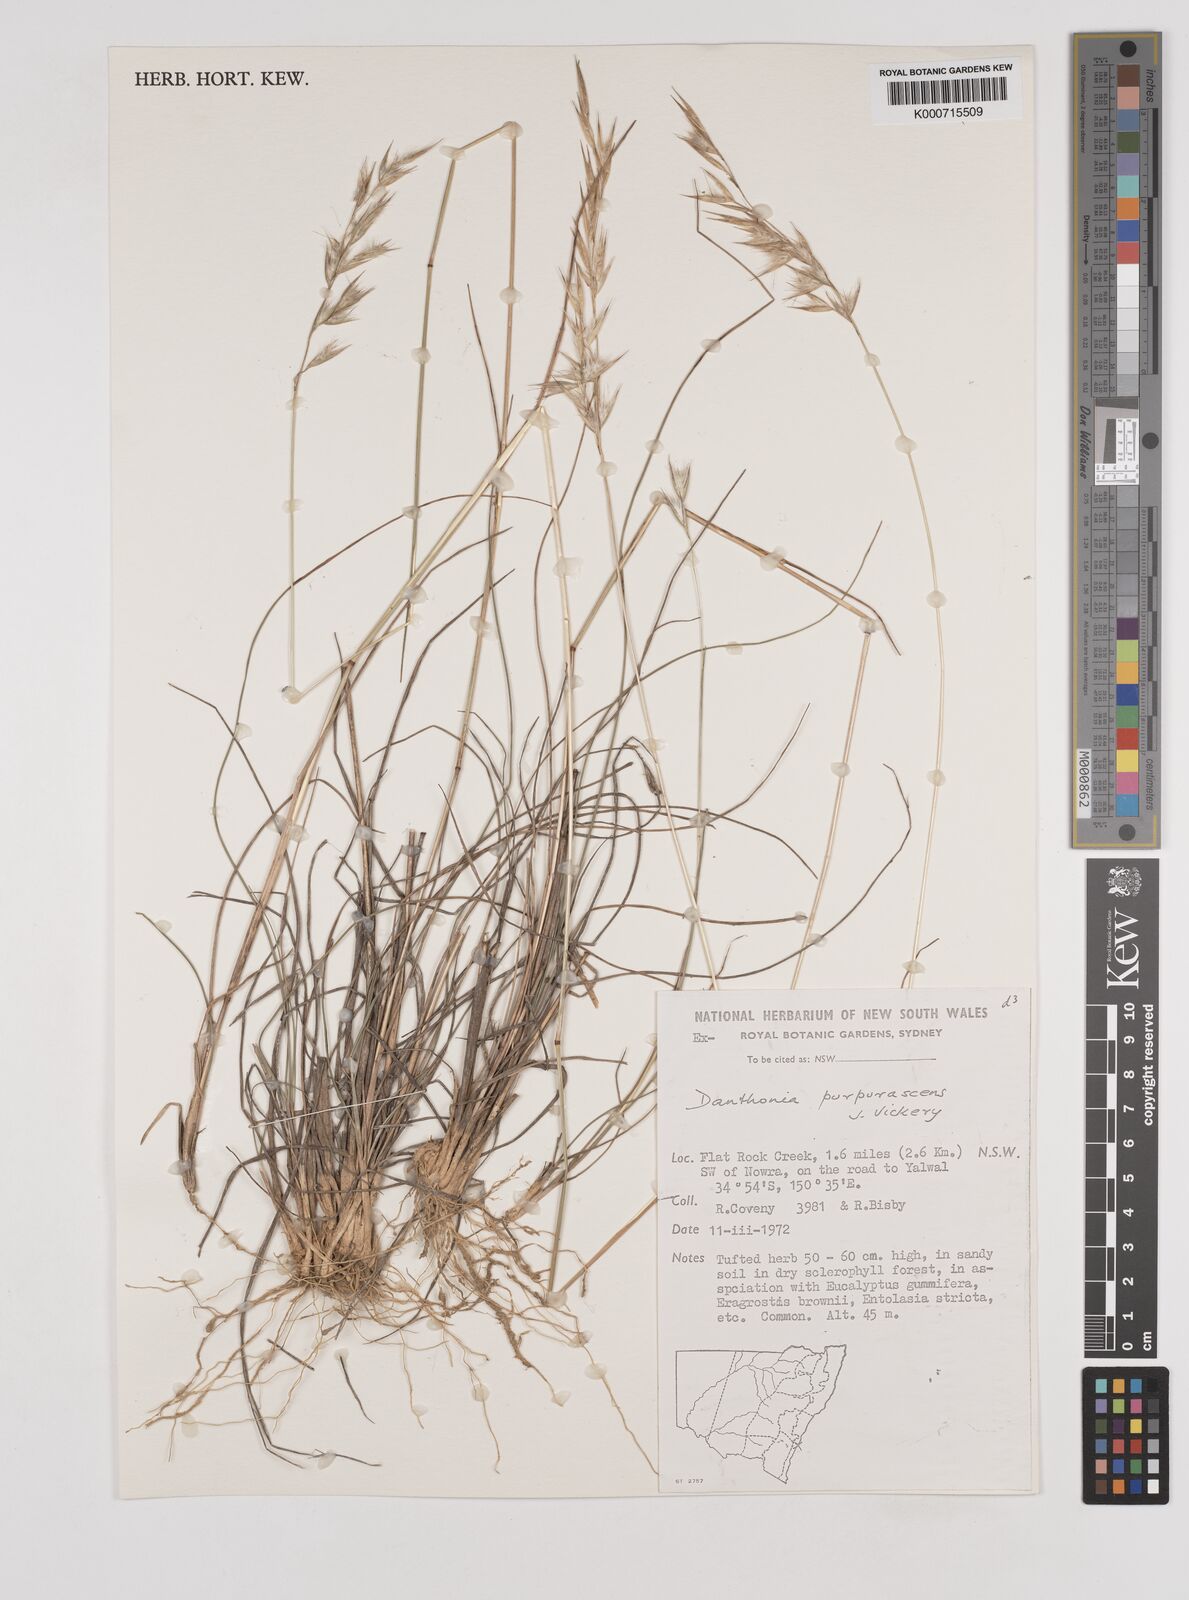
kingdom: Plantae
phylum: Tracheophyta
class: Liliopsida
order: Poales
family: Poaceae
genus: Rytidosperma
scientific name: Rytidosperma tenuius
